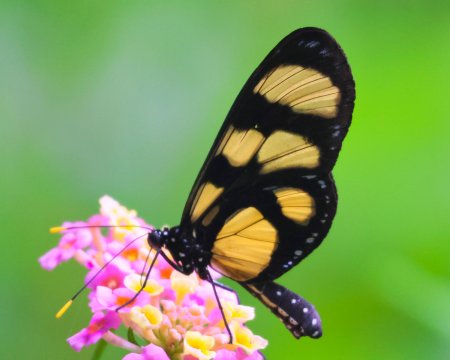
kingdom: Animalia
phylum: Arthropoda
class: Insecta
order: Lepidoptera
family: Nymphalidae
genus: Methona
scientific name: Methona confusa
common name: Confusa Tigerwing
